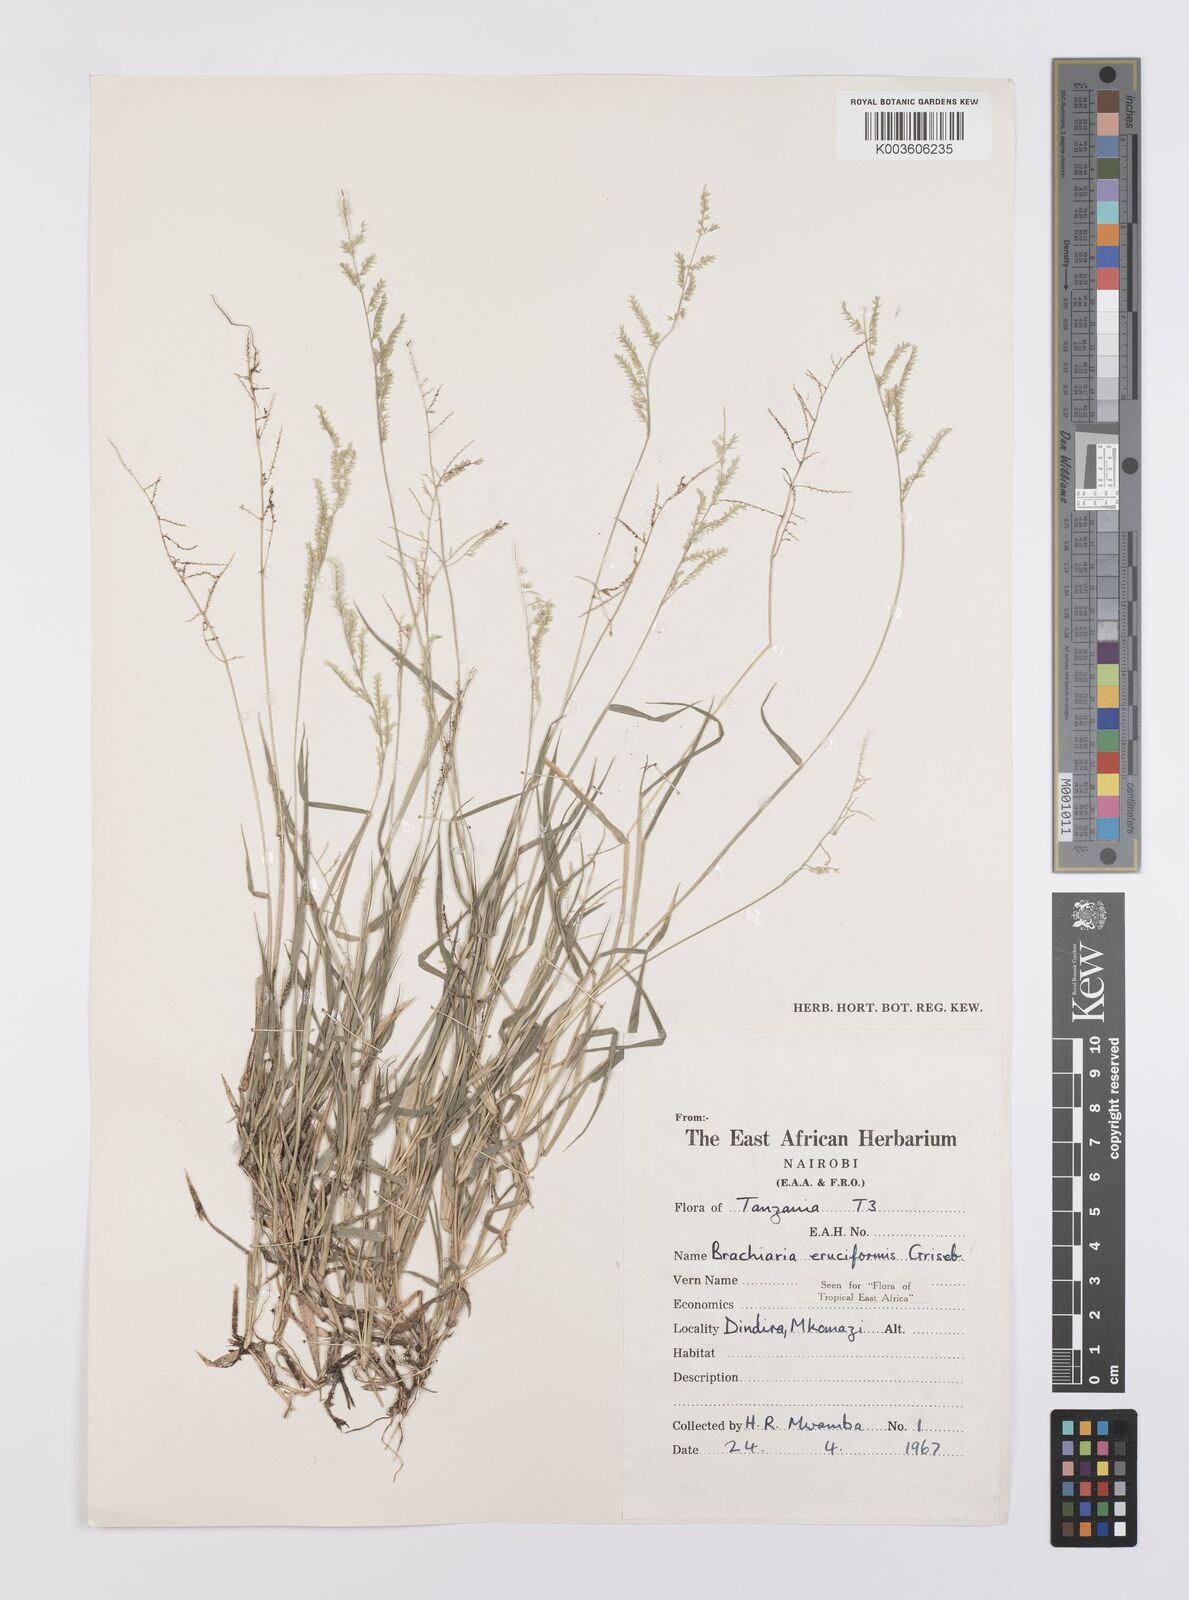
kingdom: Plantae
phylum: Tracheophyta
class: Liliopsida
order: Poales
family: Poaceae
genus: Moorochloa
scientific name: Moorochloa eruciformis
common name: Sweet signalgrass
